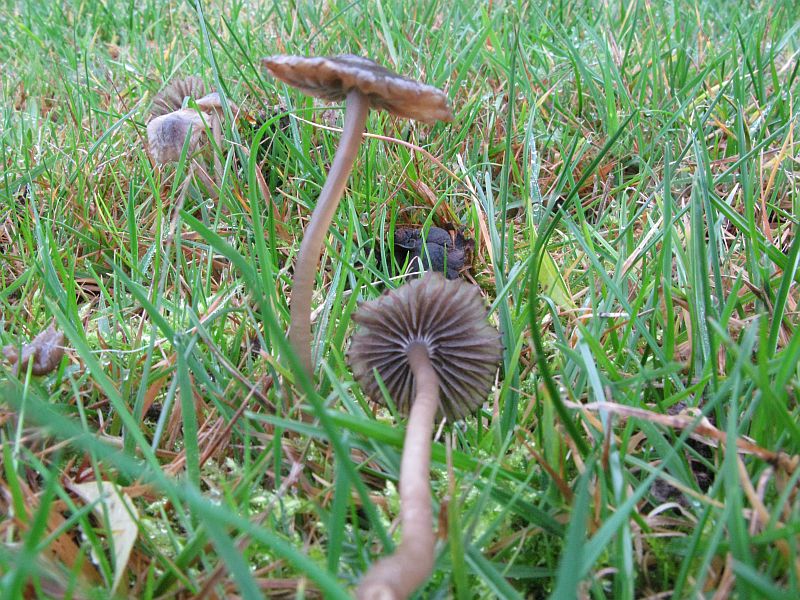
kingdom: Fungi
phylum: Basidiomycota
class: Agaricomycetes
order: Agaricales
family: Mycenaceae
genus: Mycena
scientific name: Mycena aetites
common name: plæne-huesvamp
